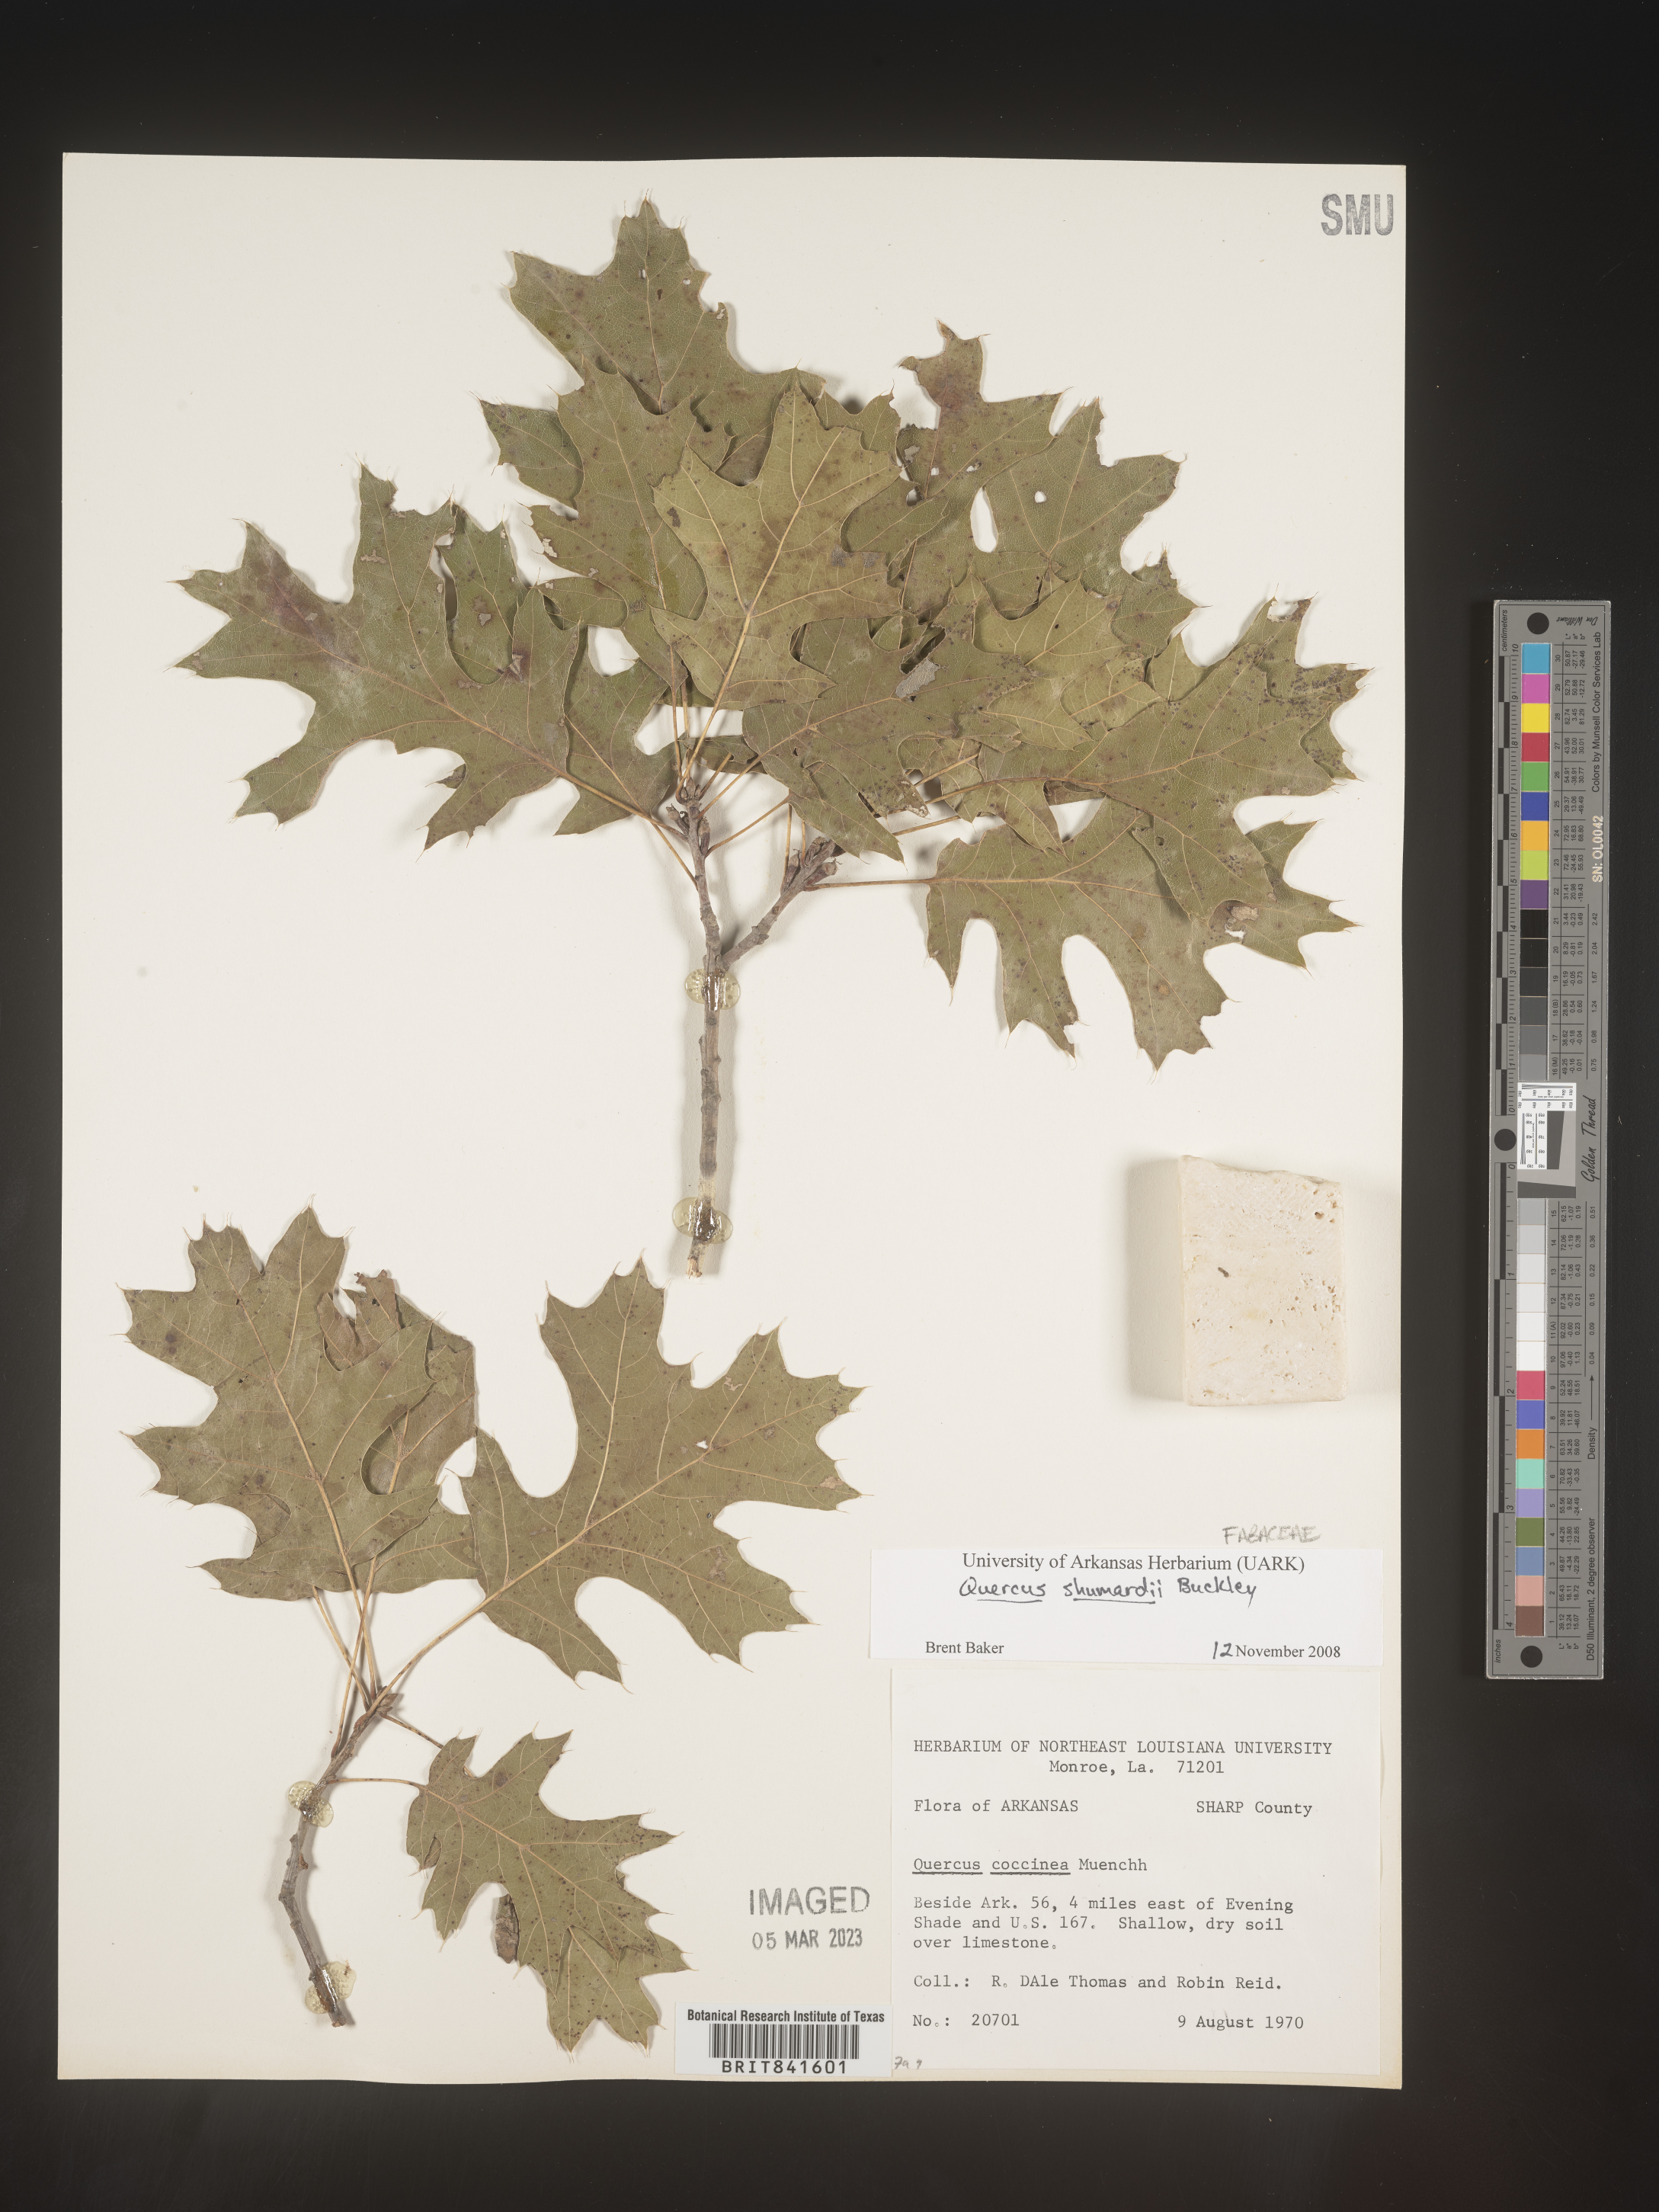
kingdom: Plantae
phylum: Tracheophyta
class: Magnoliopsida
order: Fagales
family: Fagaceae
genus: Quercus
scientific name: Quercus shumardii
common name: Shumard oak
